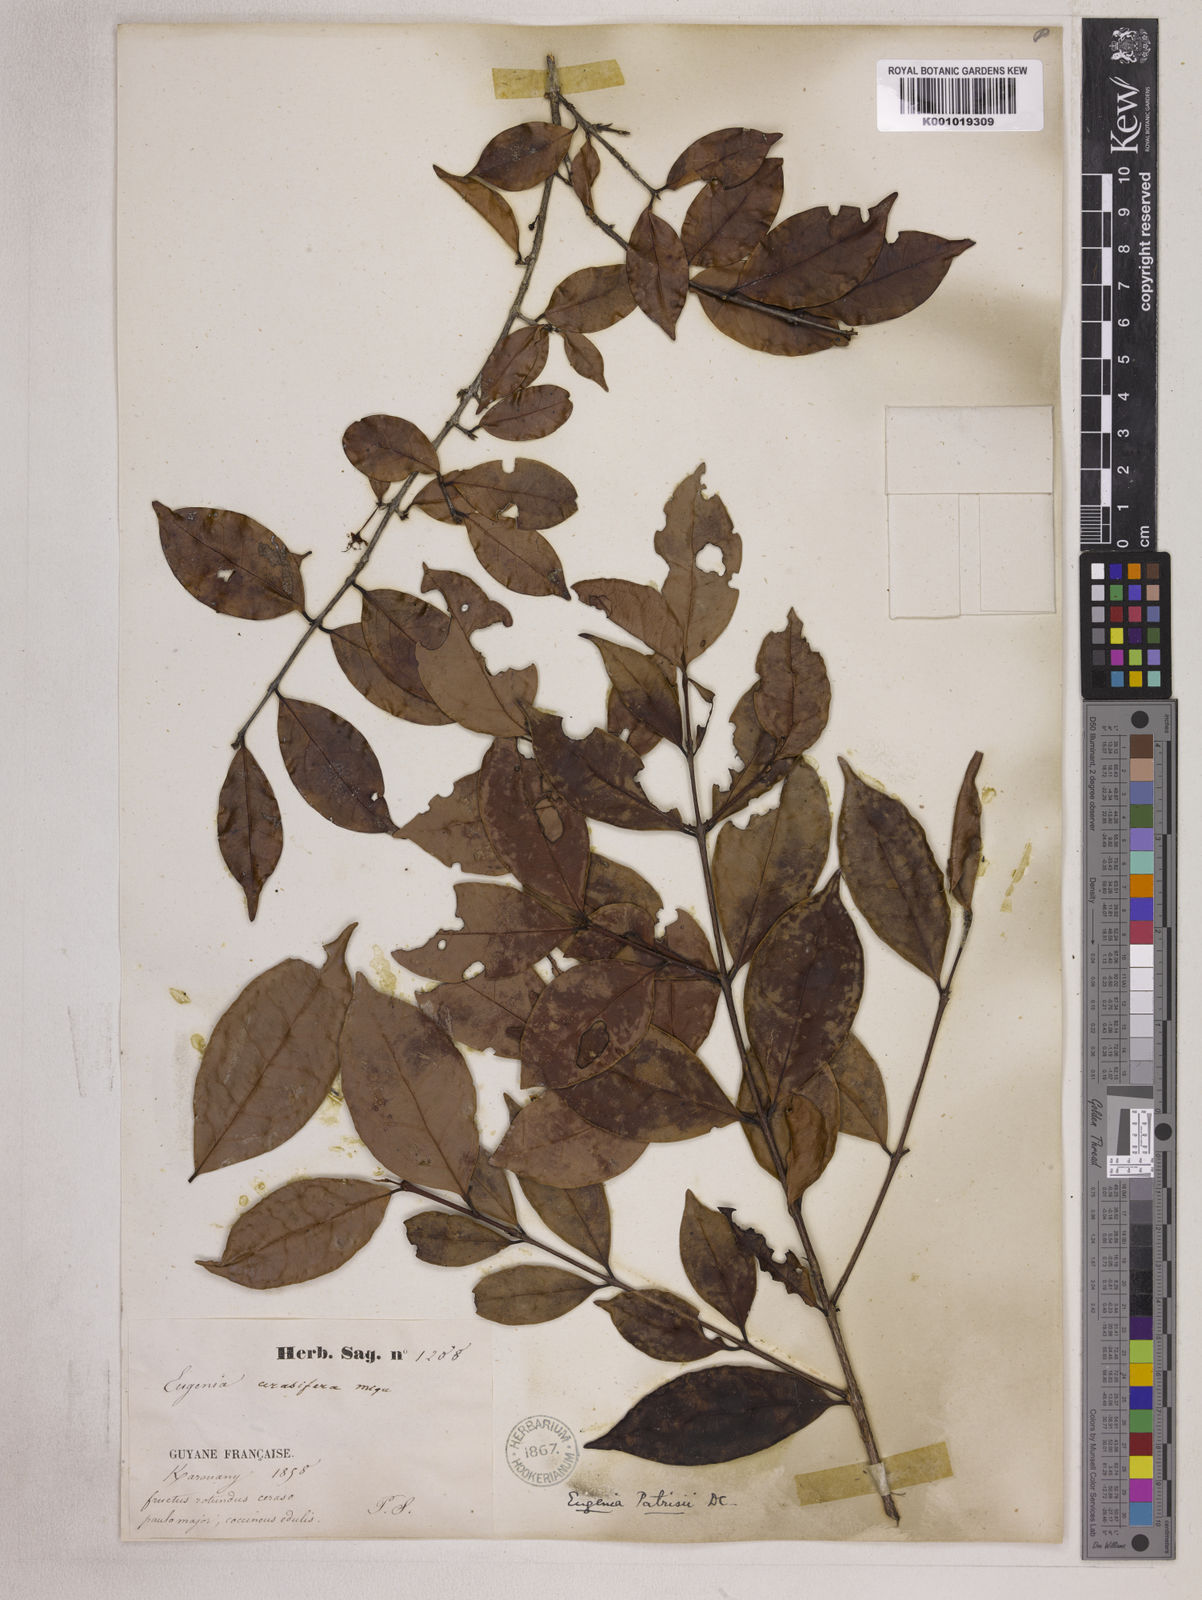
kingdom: Plantae
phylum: Tracheophyta
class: Magnoliopsida
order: Myrtales
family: Myrtaceae
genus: Eugenia
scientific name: Eugenia patrisii
